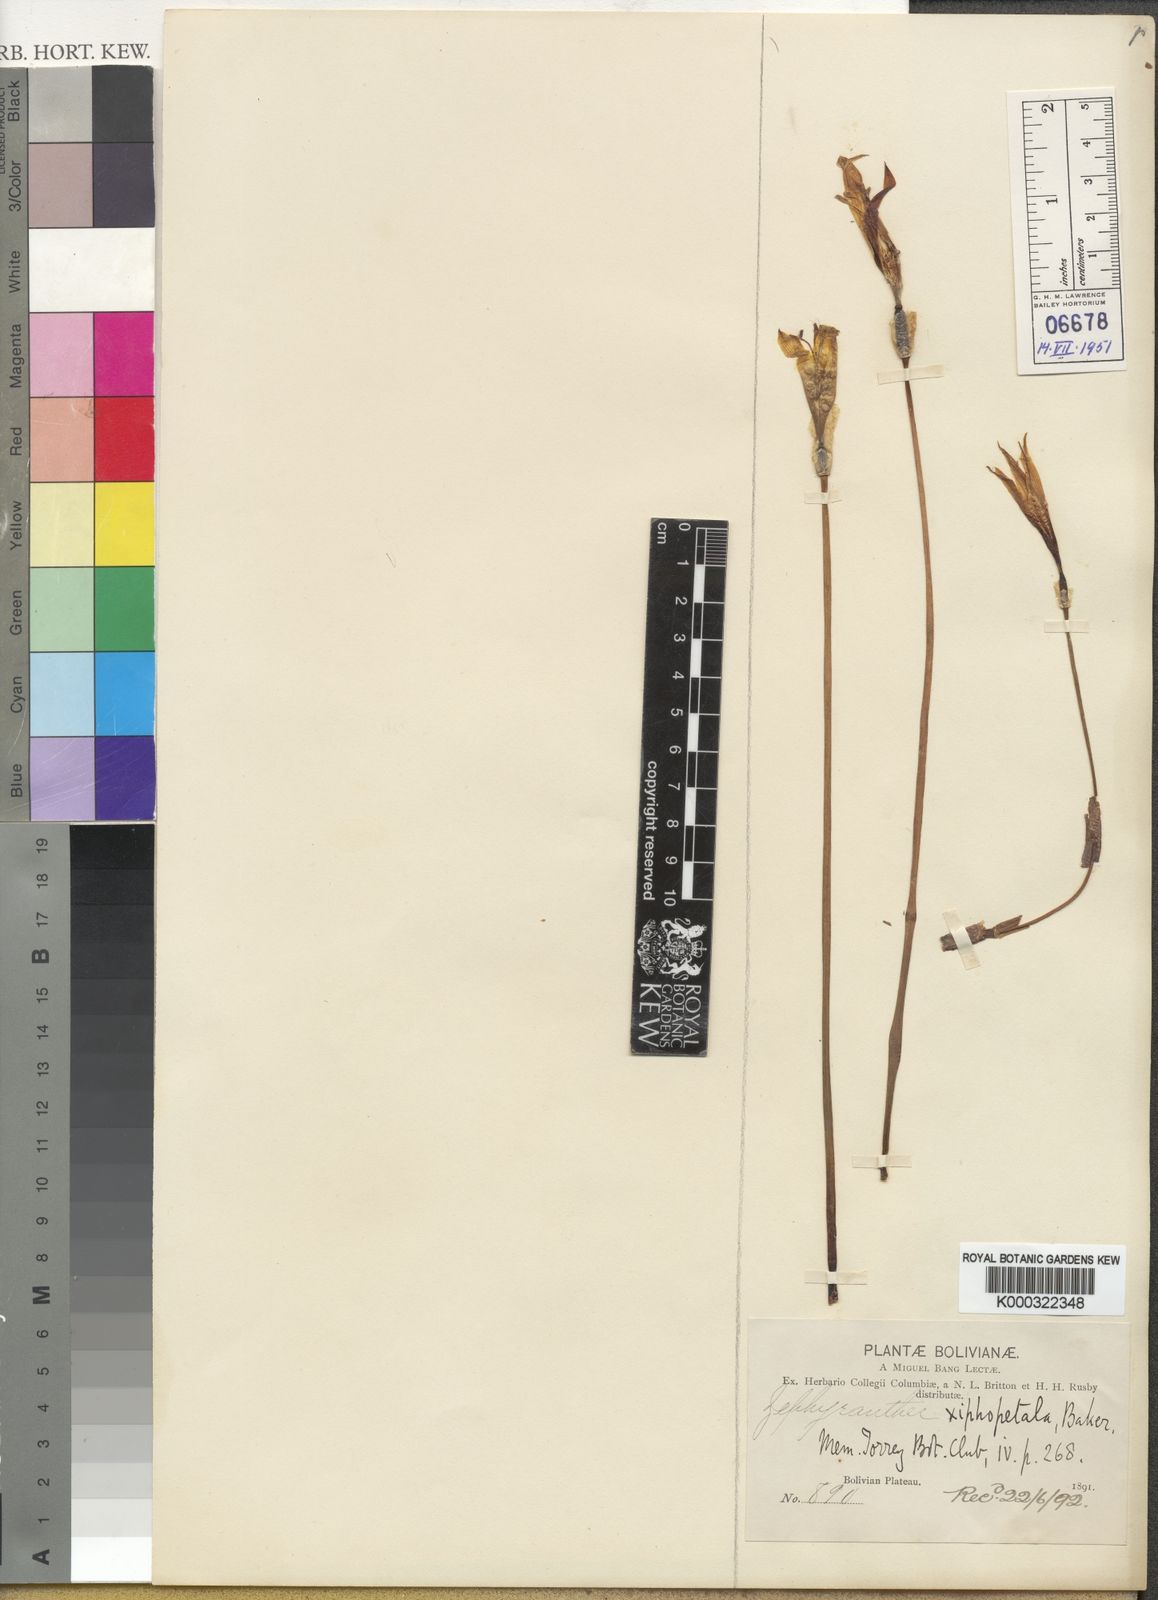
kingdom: Plantae
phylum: Tracheophyta
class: Liliopsida
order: Asparagales
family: Amaryllidaceae
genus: Pyrolirion
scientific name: Pyrolirion boliviense
